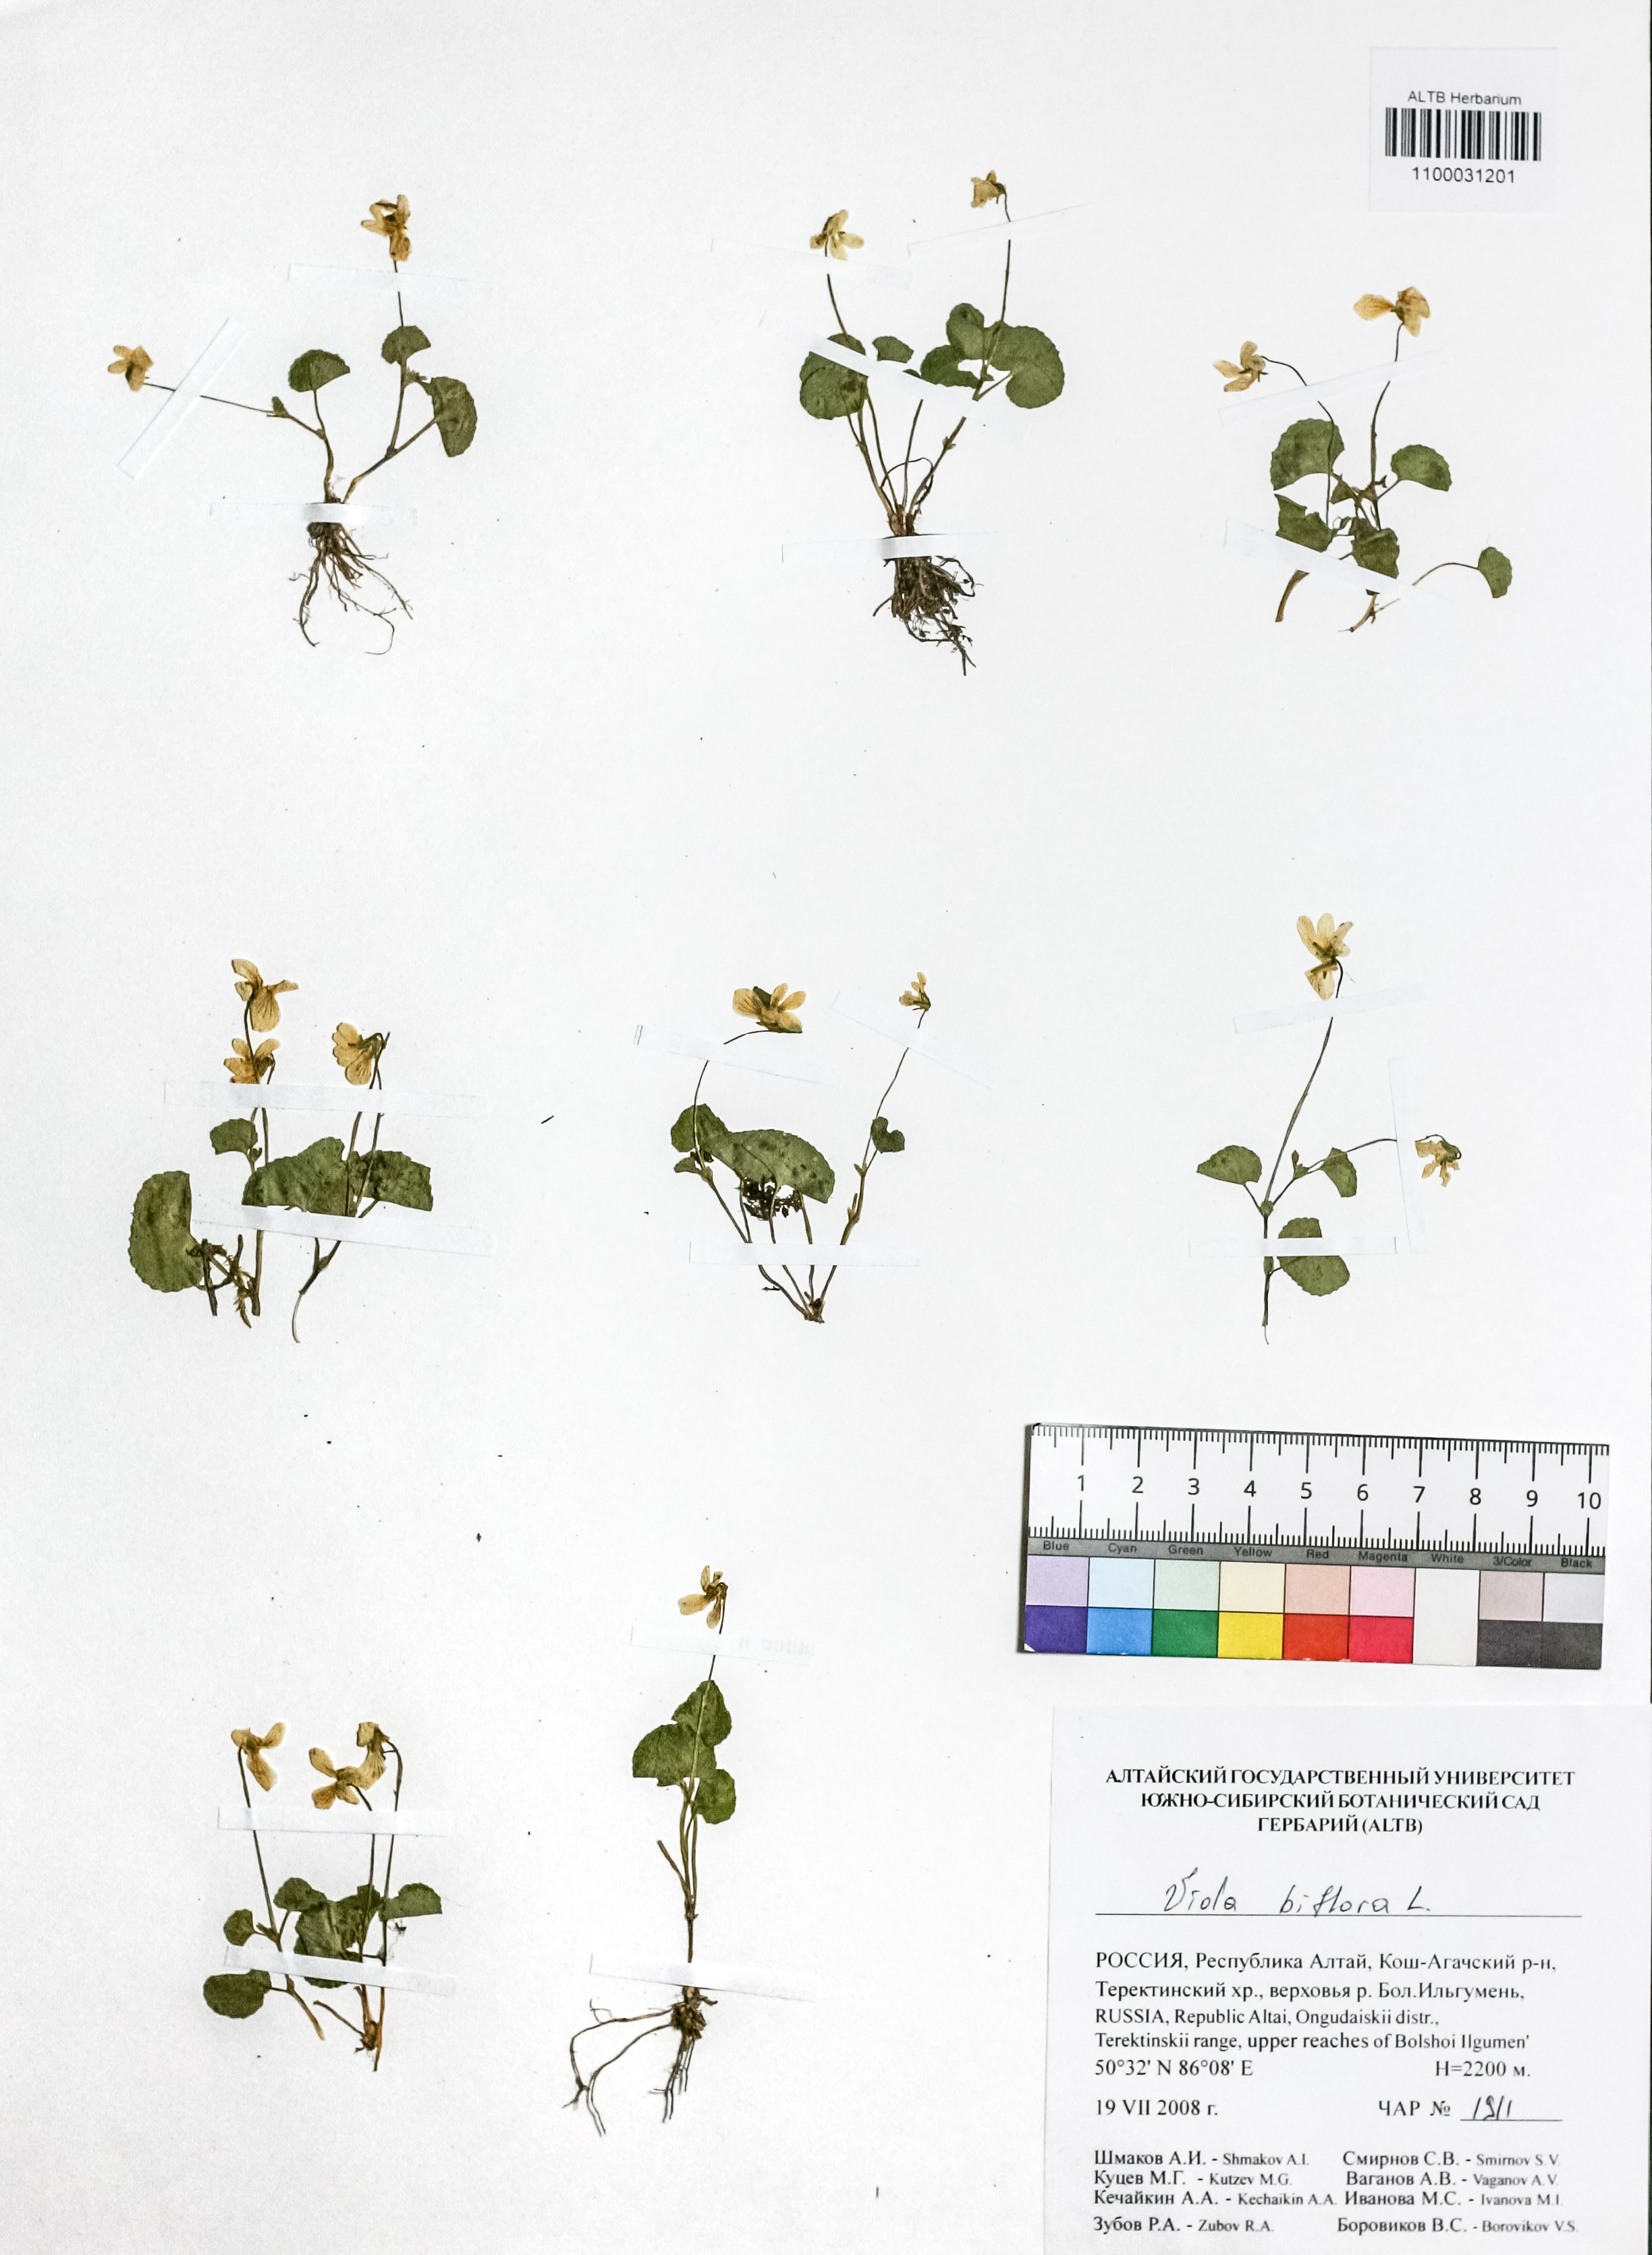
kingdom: Plantae
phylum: Tracheophyta
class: Magnoliopsida
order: Malpighiales
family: Violaceae
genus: Viola
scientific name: Viola biflora
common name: Alpine yellow violet
